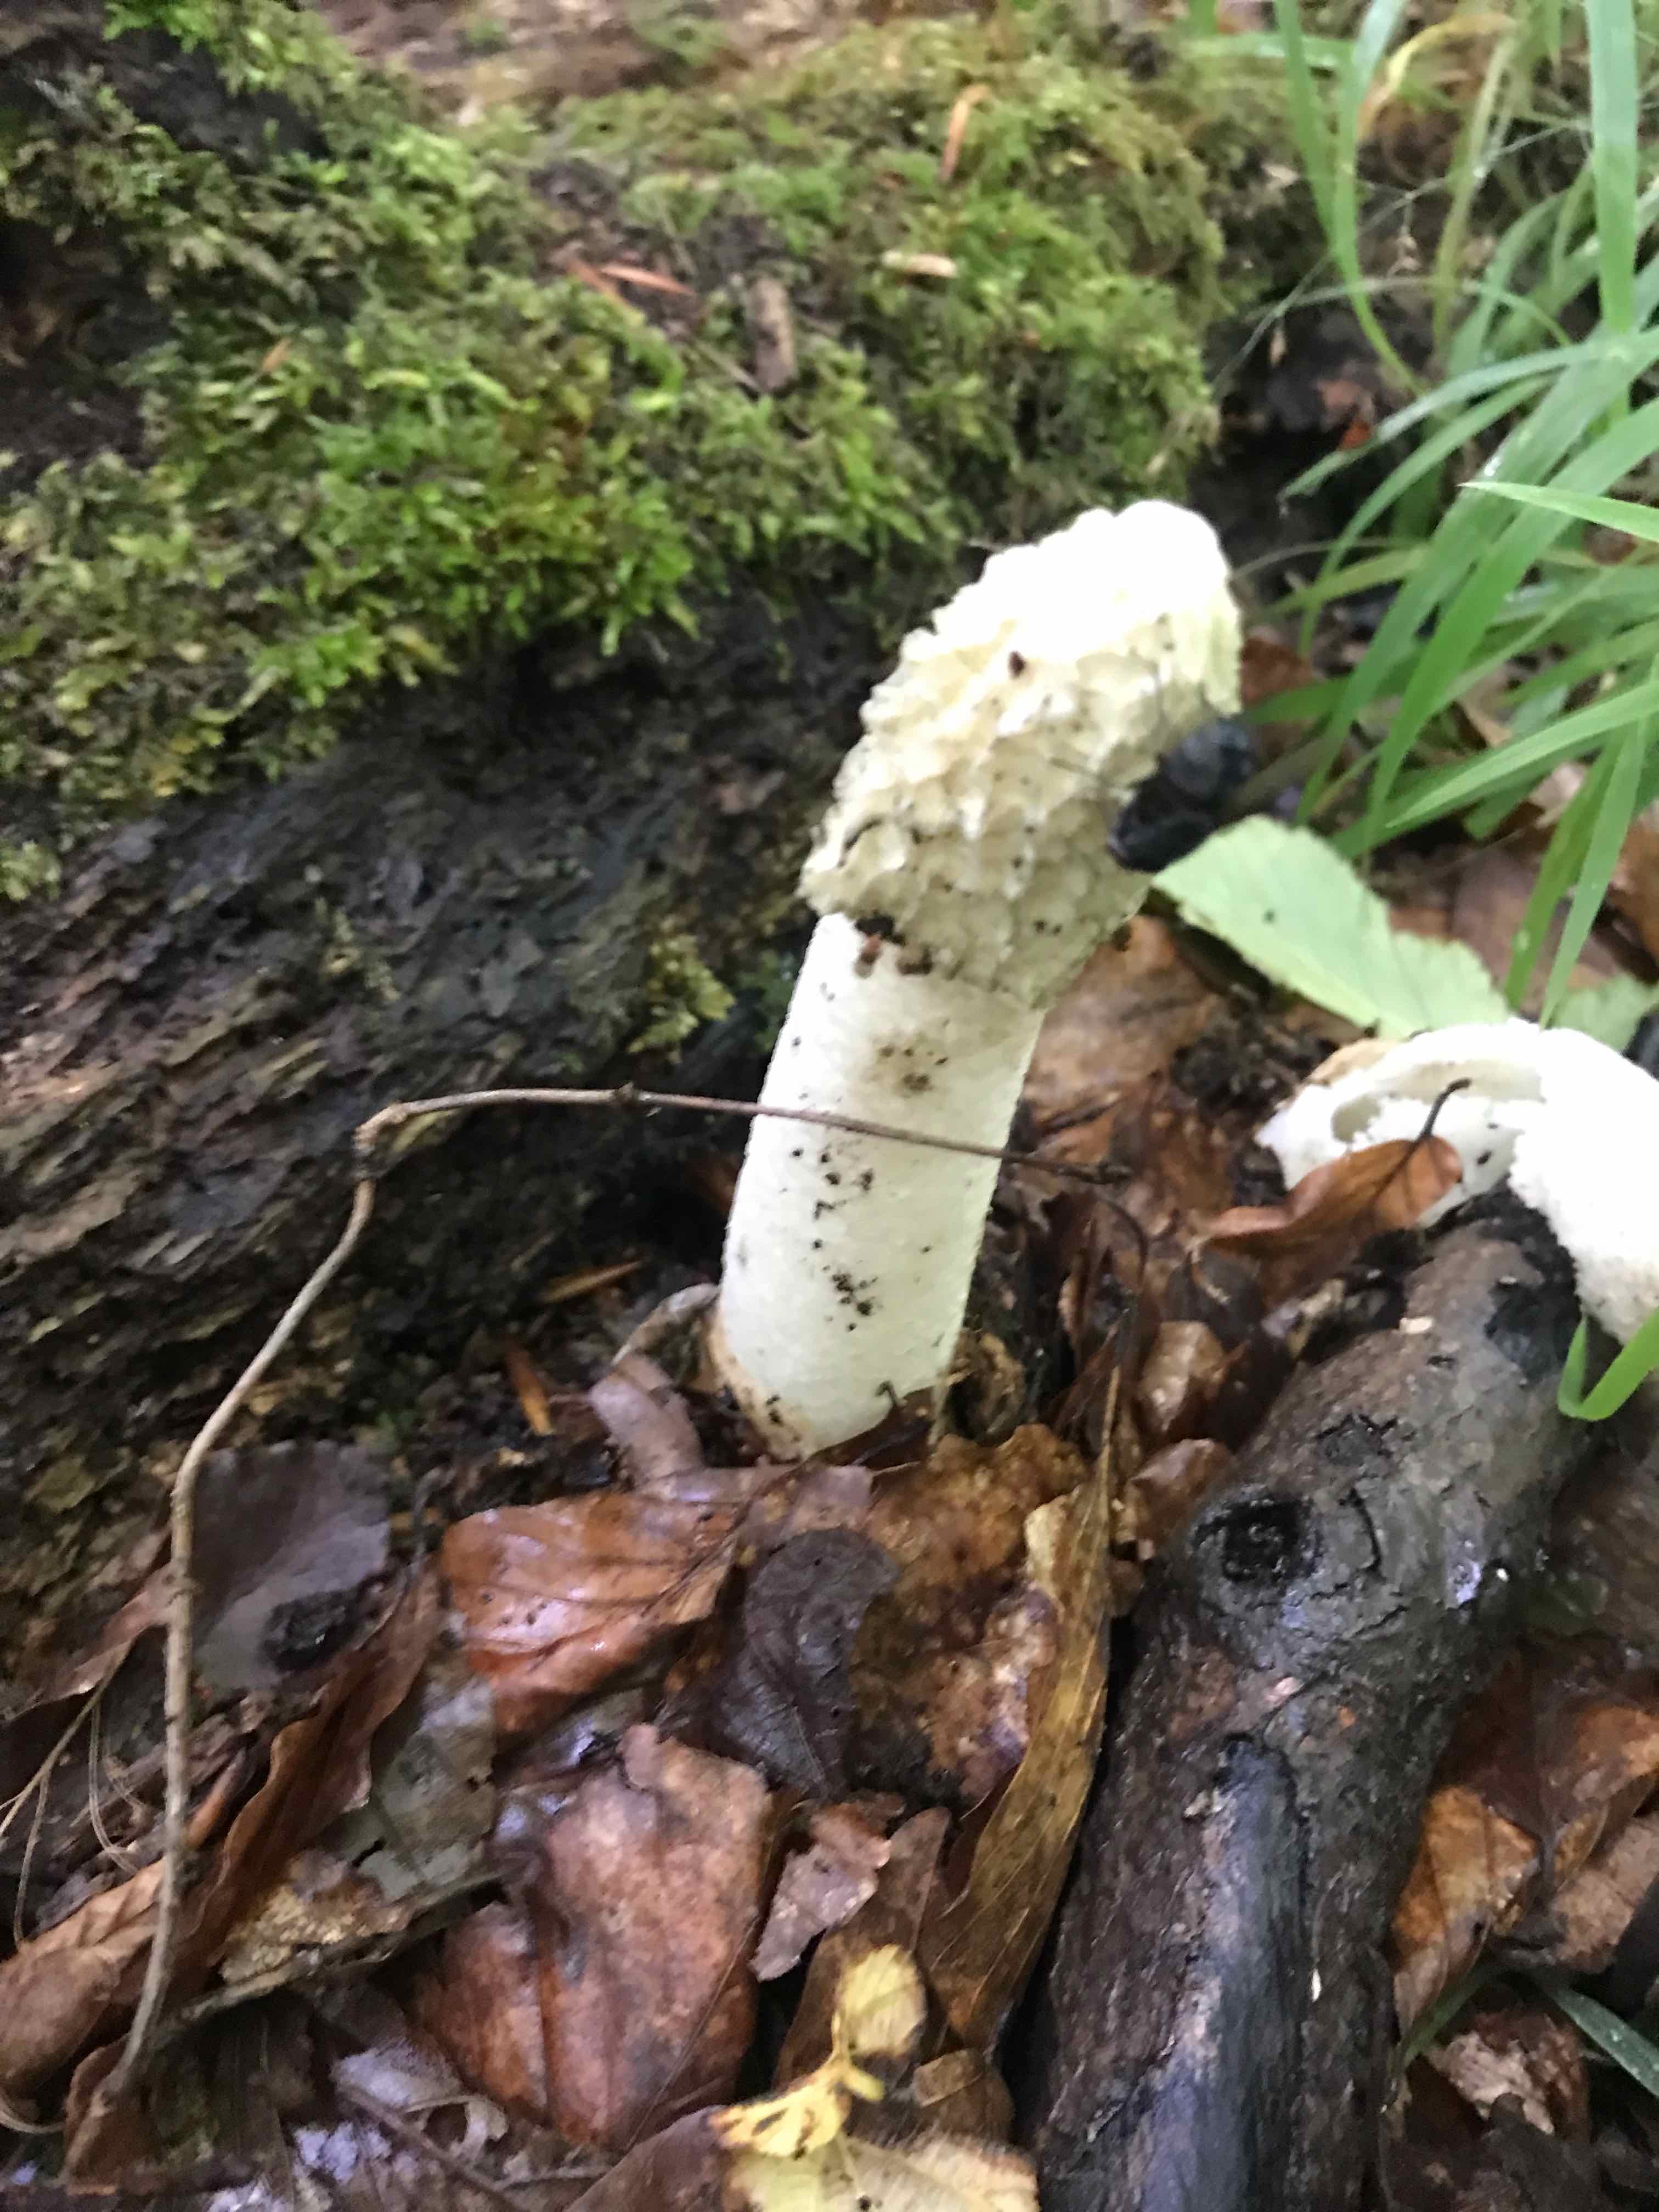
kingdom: Fungi
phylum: Basidiomycota
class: Agaricomycetes
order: Phallales
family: Phallaceae
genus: Phallus
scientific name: Phallus impudicus
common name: almindelig stinksvamp
